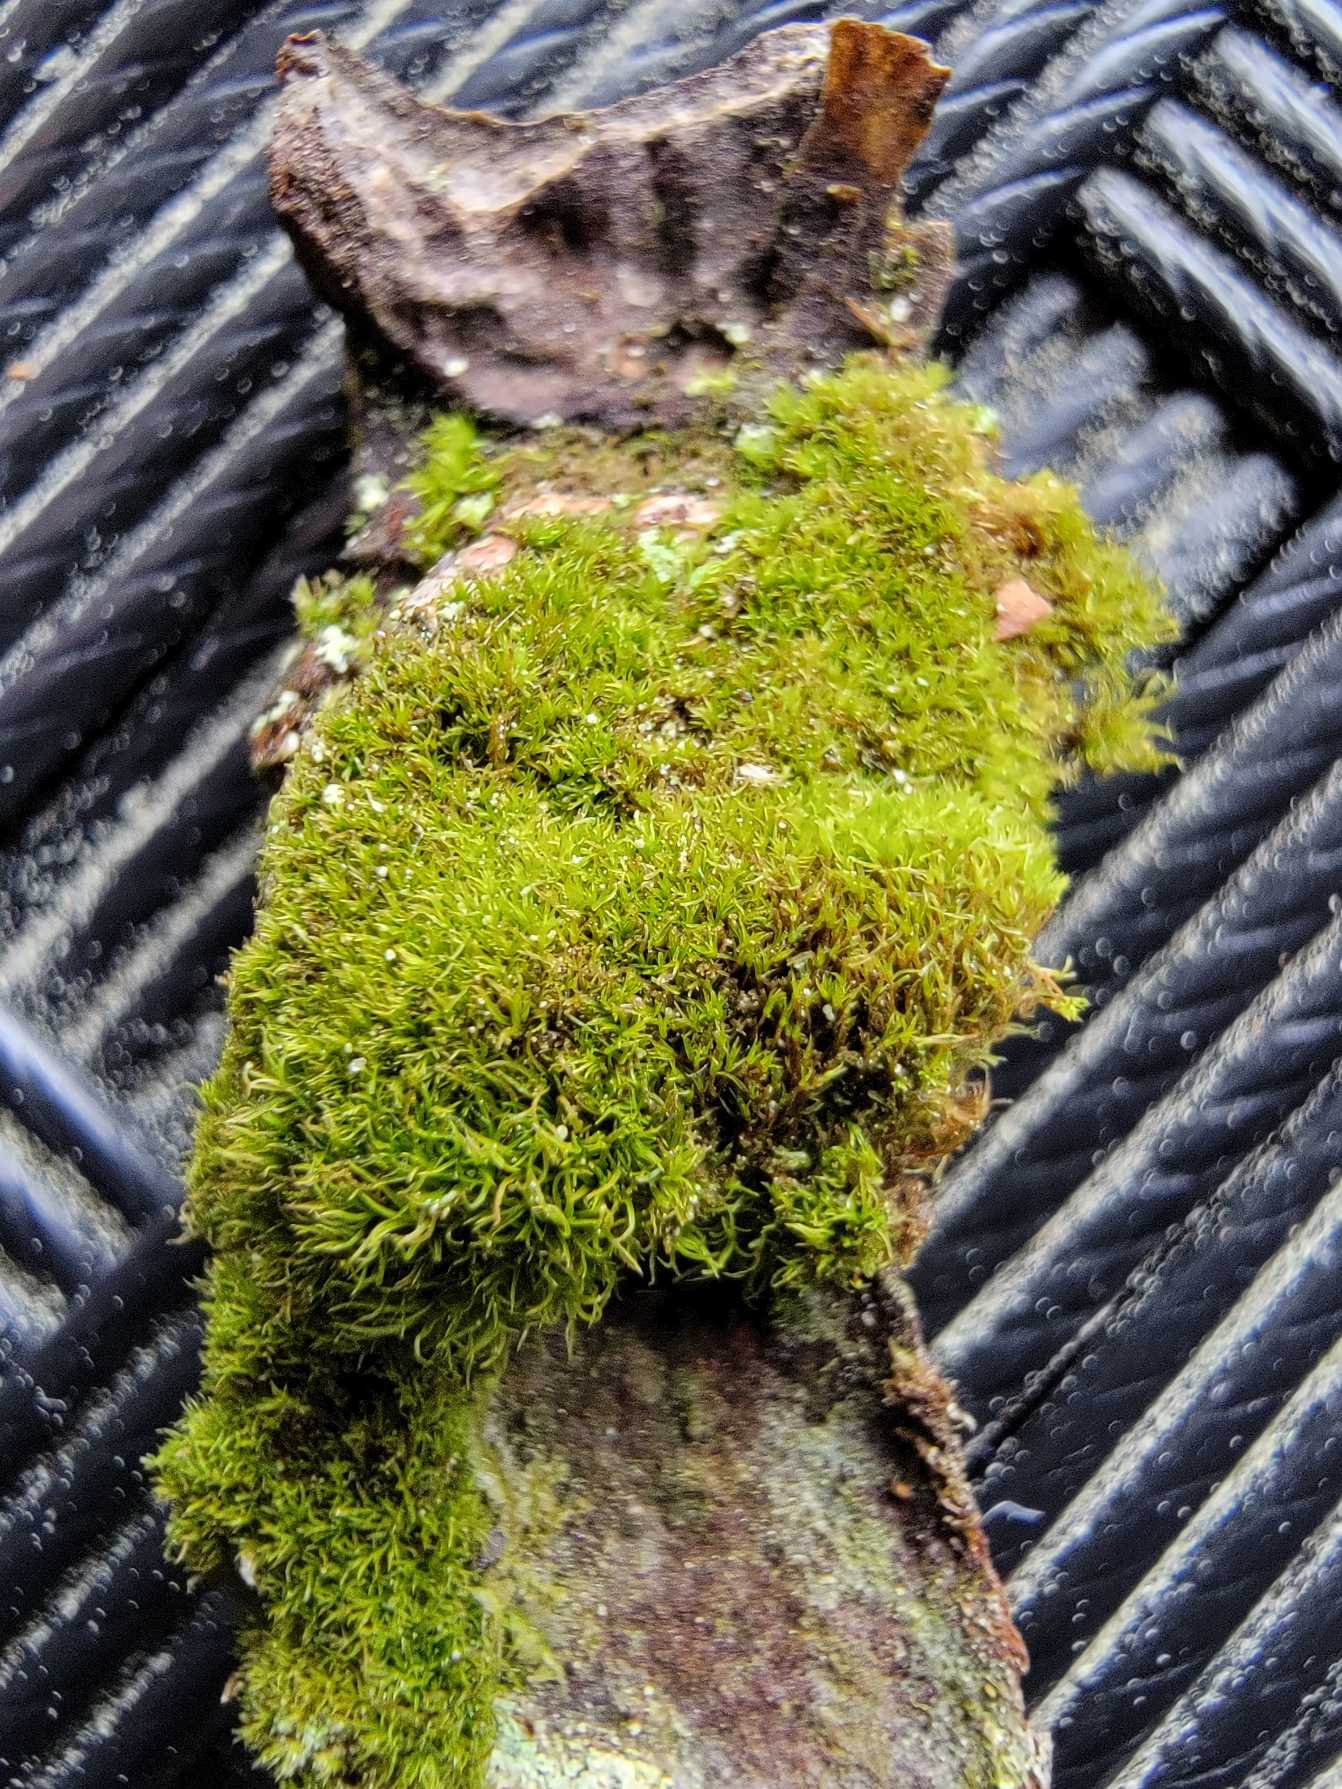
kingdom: Plantae
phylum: Bryophyta
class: Bryopsida
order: Dicranales
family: Dicranaceae
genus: Orthodicranum
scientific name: Orthodicranum montanum
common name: Tæt tyndvinge
